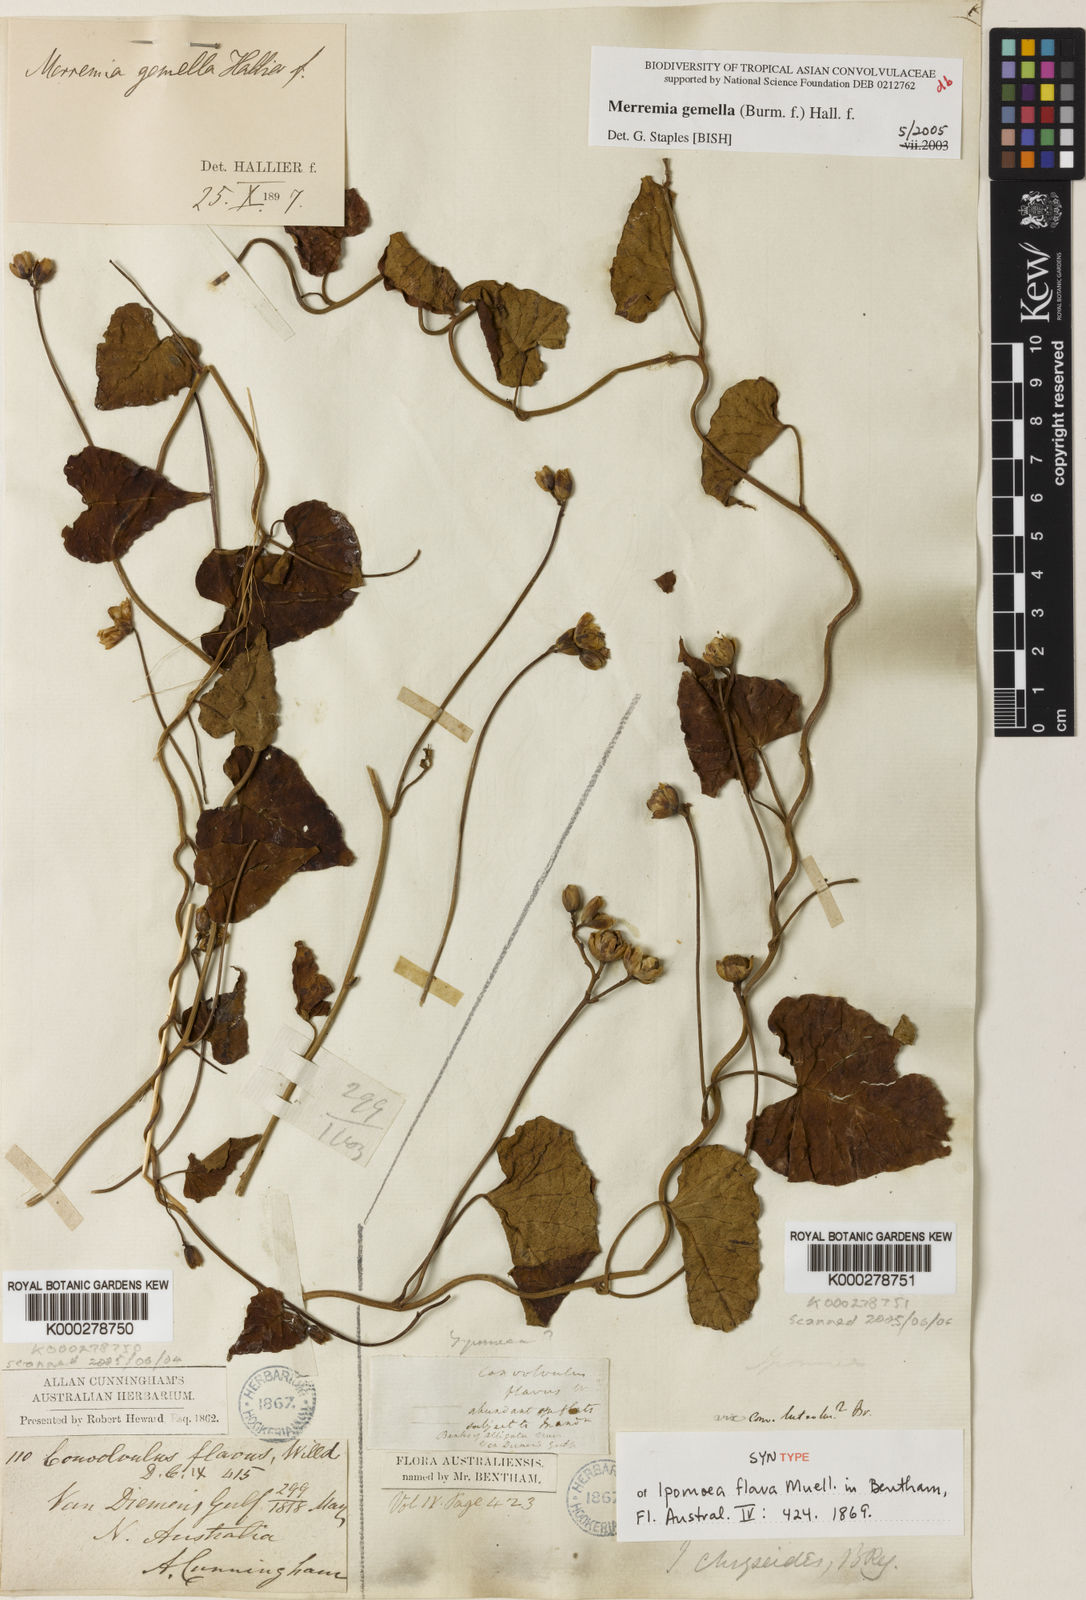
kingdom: Plantae
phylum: Tracheophyta
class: Magnoliopsida
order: Solanales
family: Convolvulaceae
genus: Merremia
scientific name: Merremia gemella
